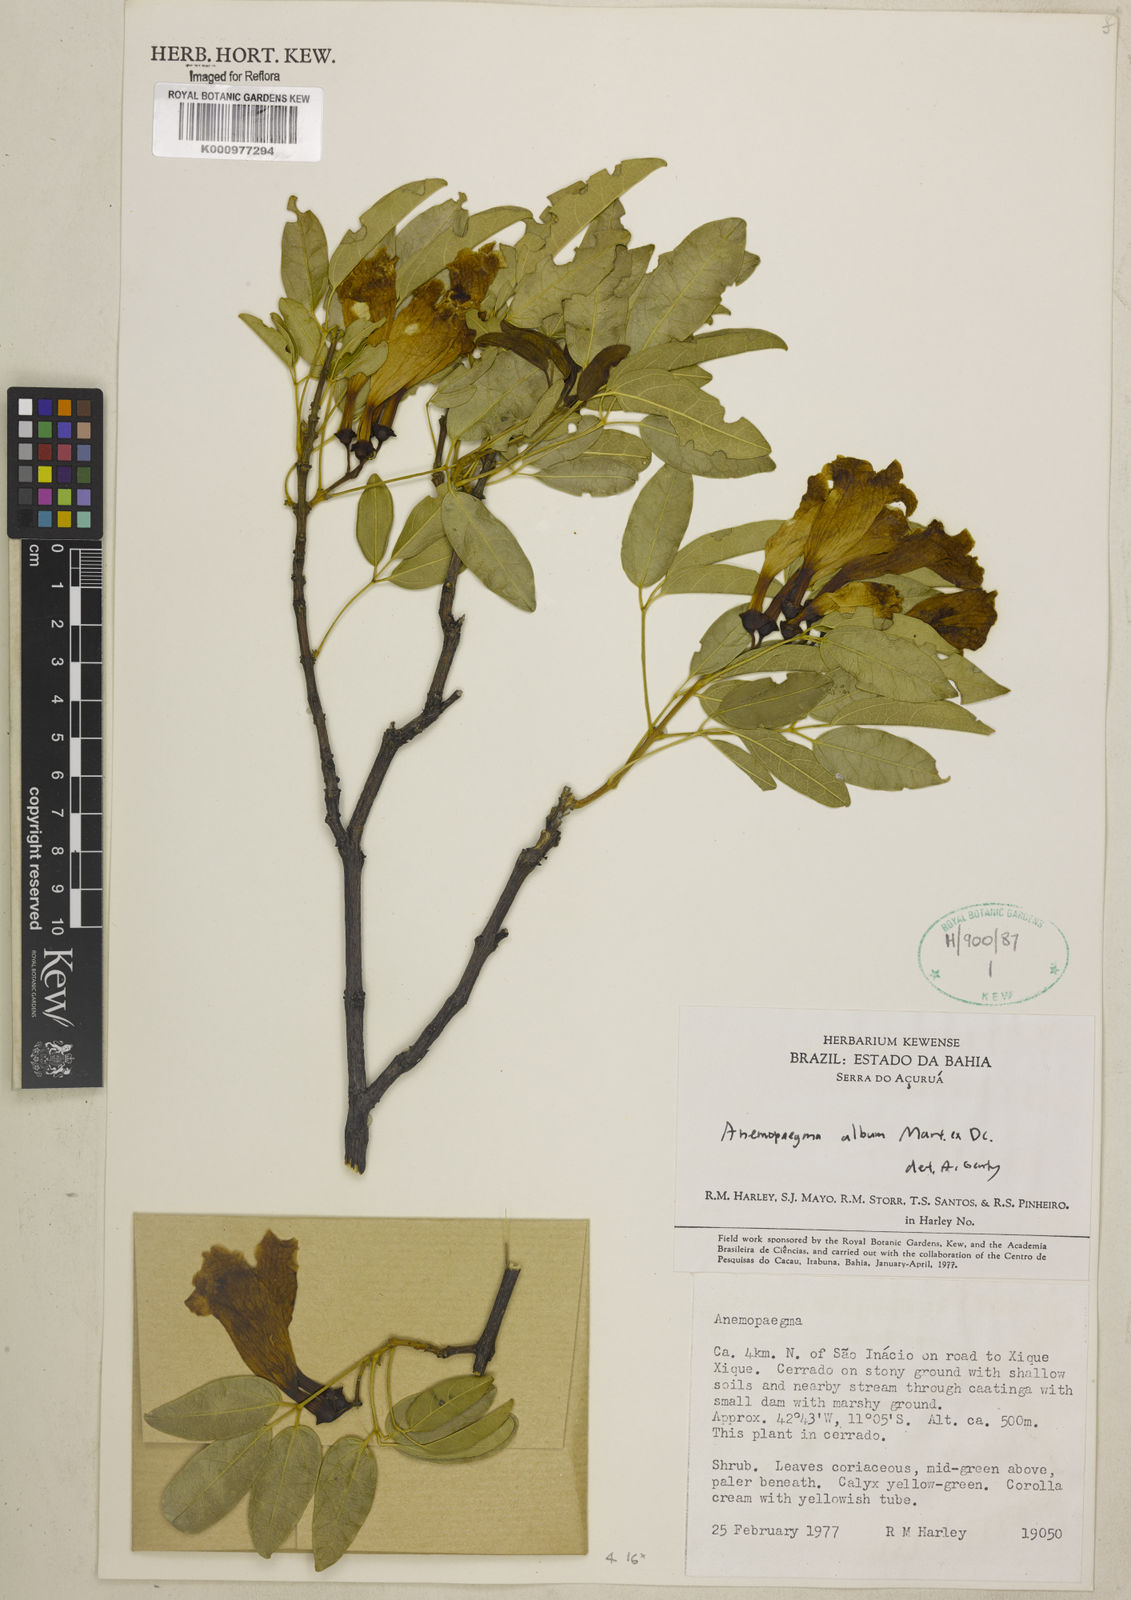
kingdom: Plantae
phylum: Tracheophyta
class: Magnoliopsida
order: Lamiales
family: Bignoniaceae
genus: Anemopaegma
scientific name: Anemopaegma album
